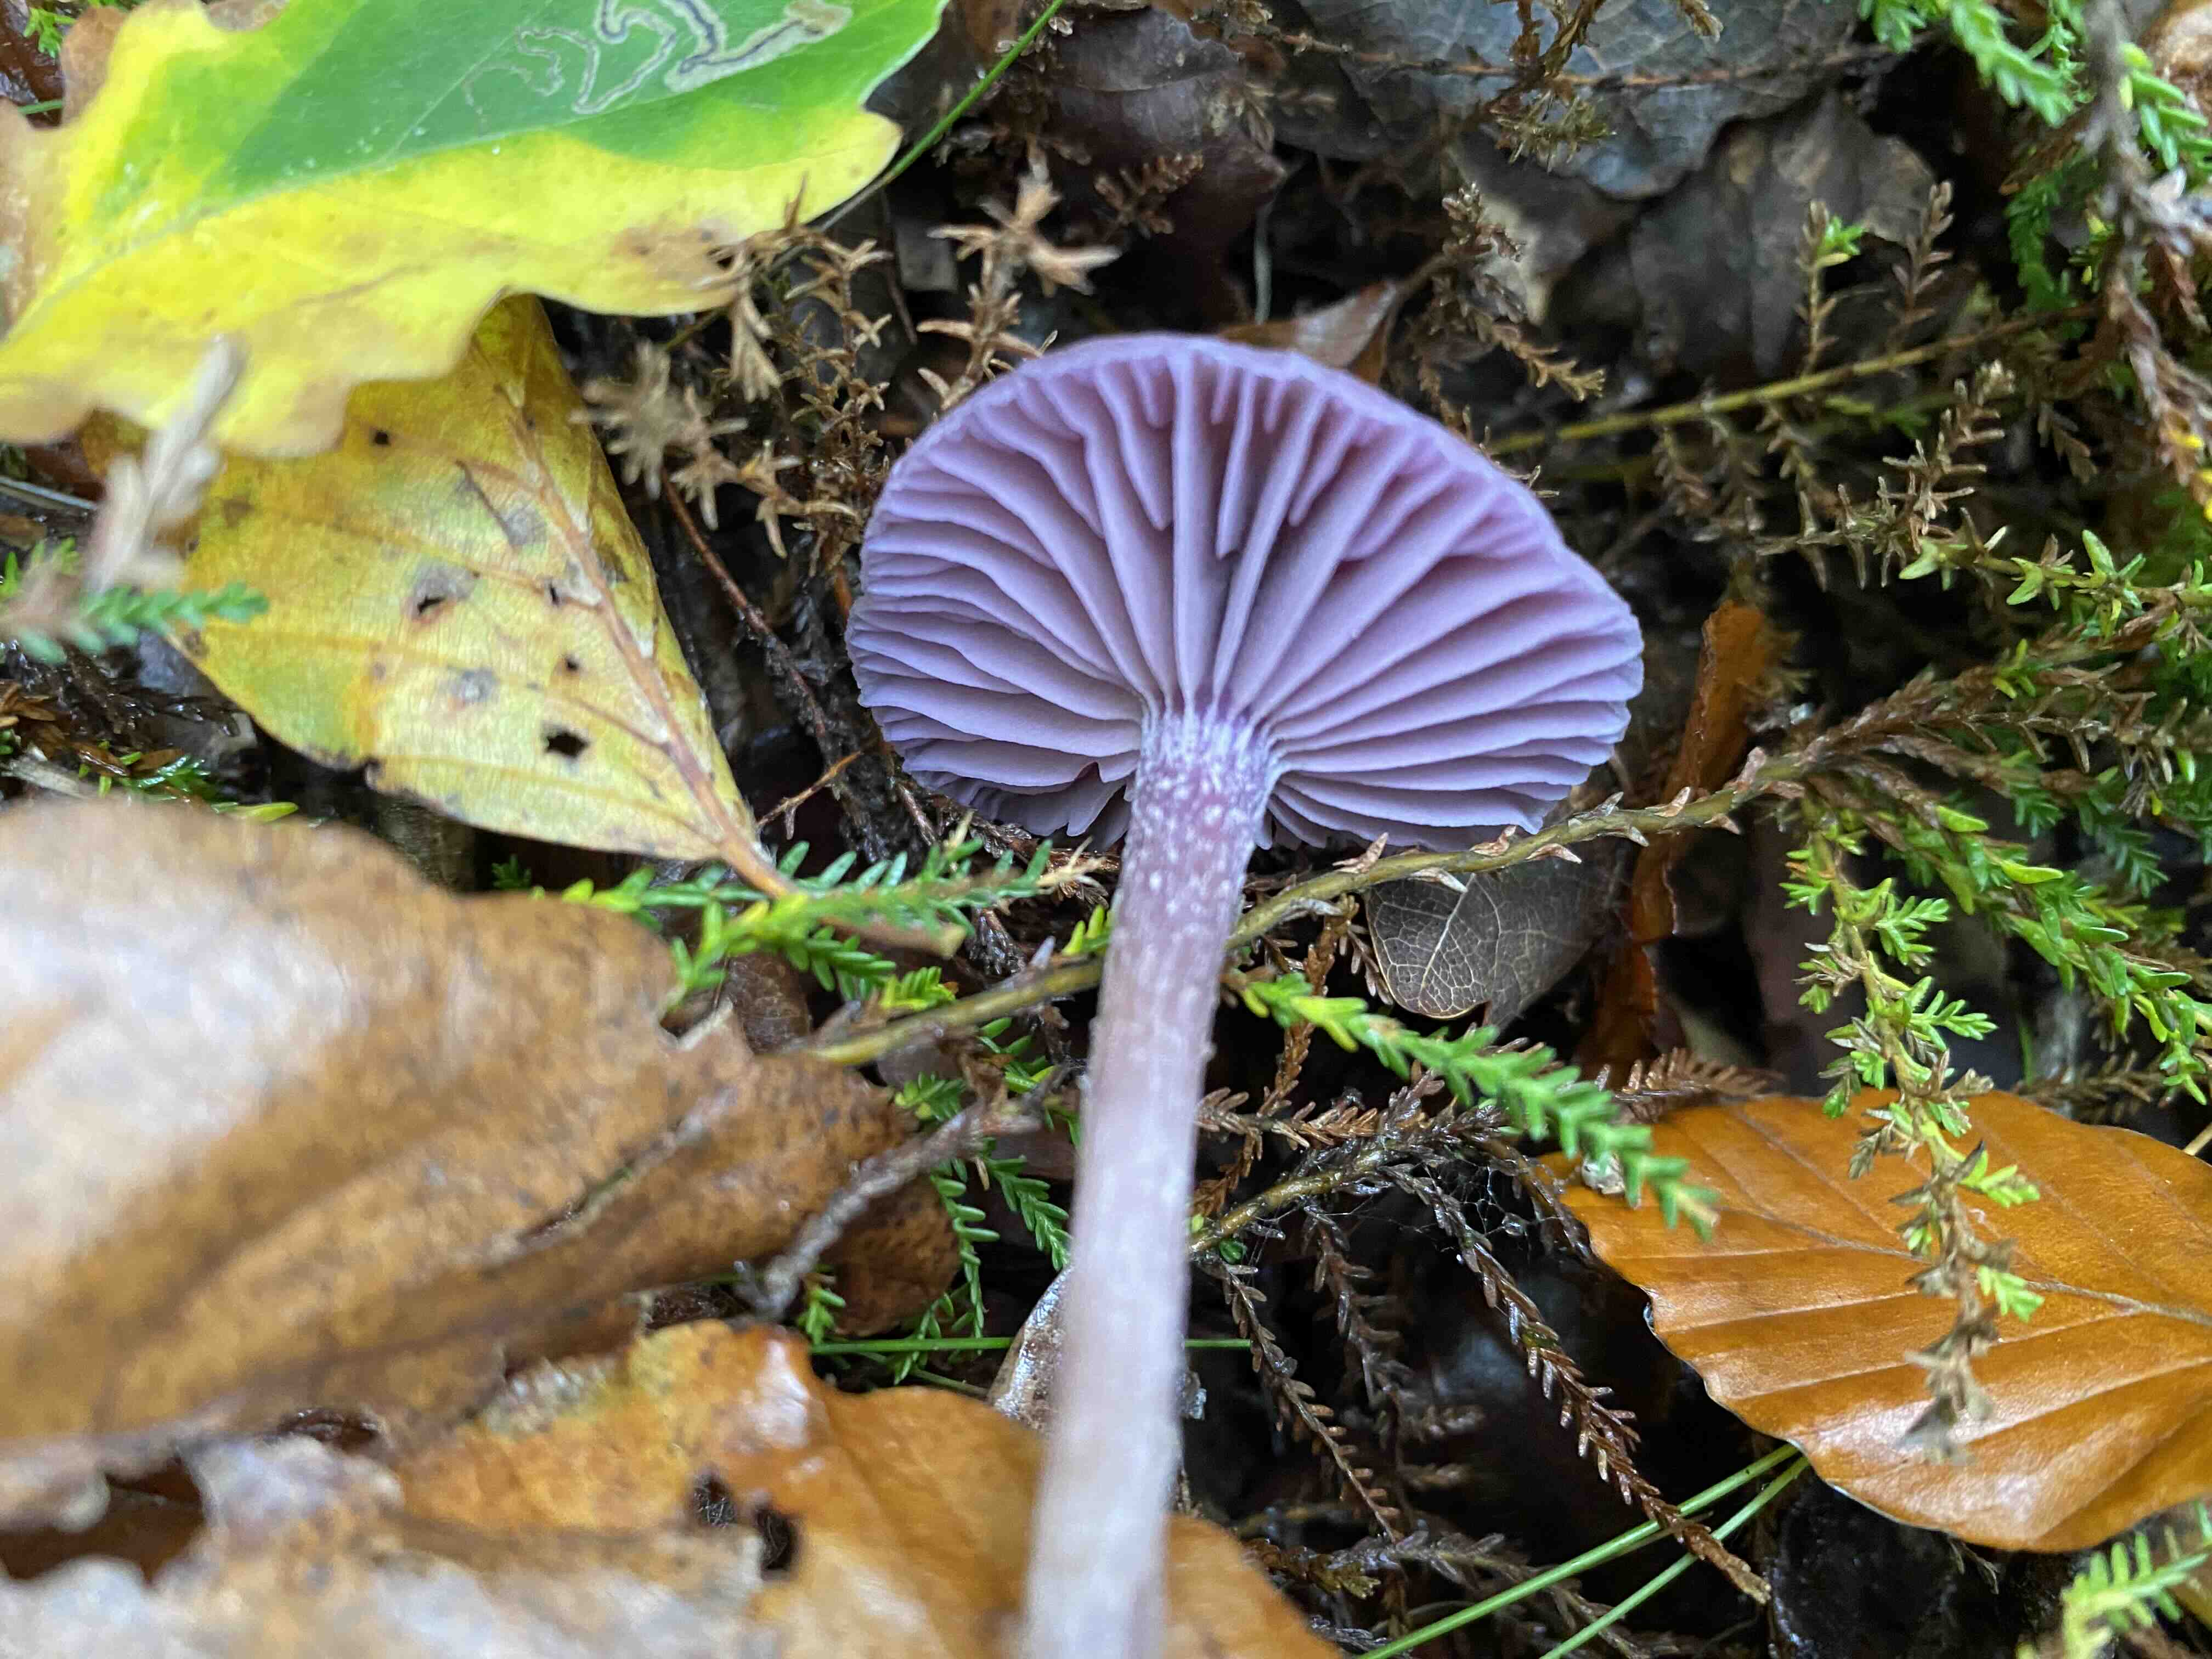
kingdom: Fungi
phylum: Basidiomycota
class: Agaricomycetes
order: Agaricales
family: Hydnangiaceae
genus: Laccaria
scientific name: Laccaria amethystina
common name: violet ametysthat
